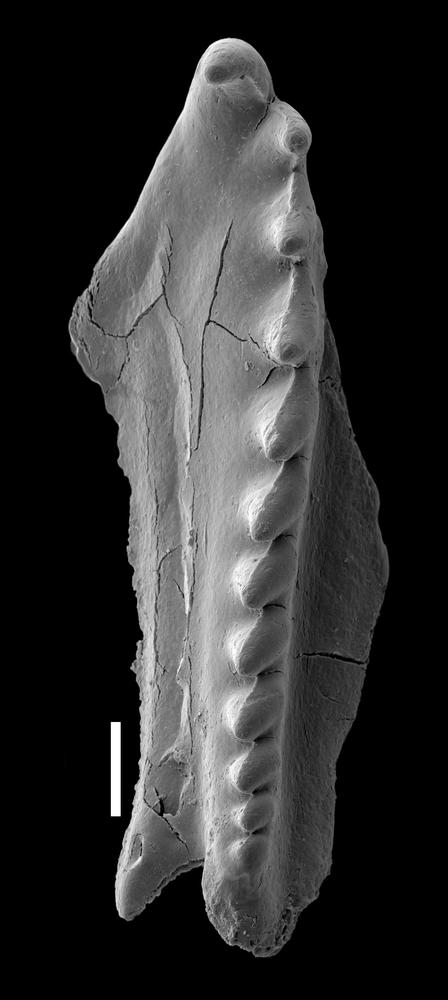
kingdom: Animalia
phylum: Annelida
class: Polychaeta
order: Eunicida
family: Polychaeturidae
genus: Pteropelta
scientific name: Pteropelta gladiata
